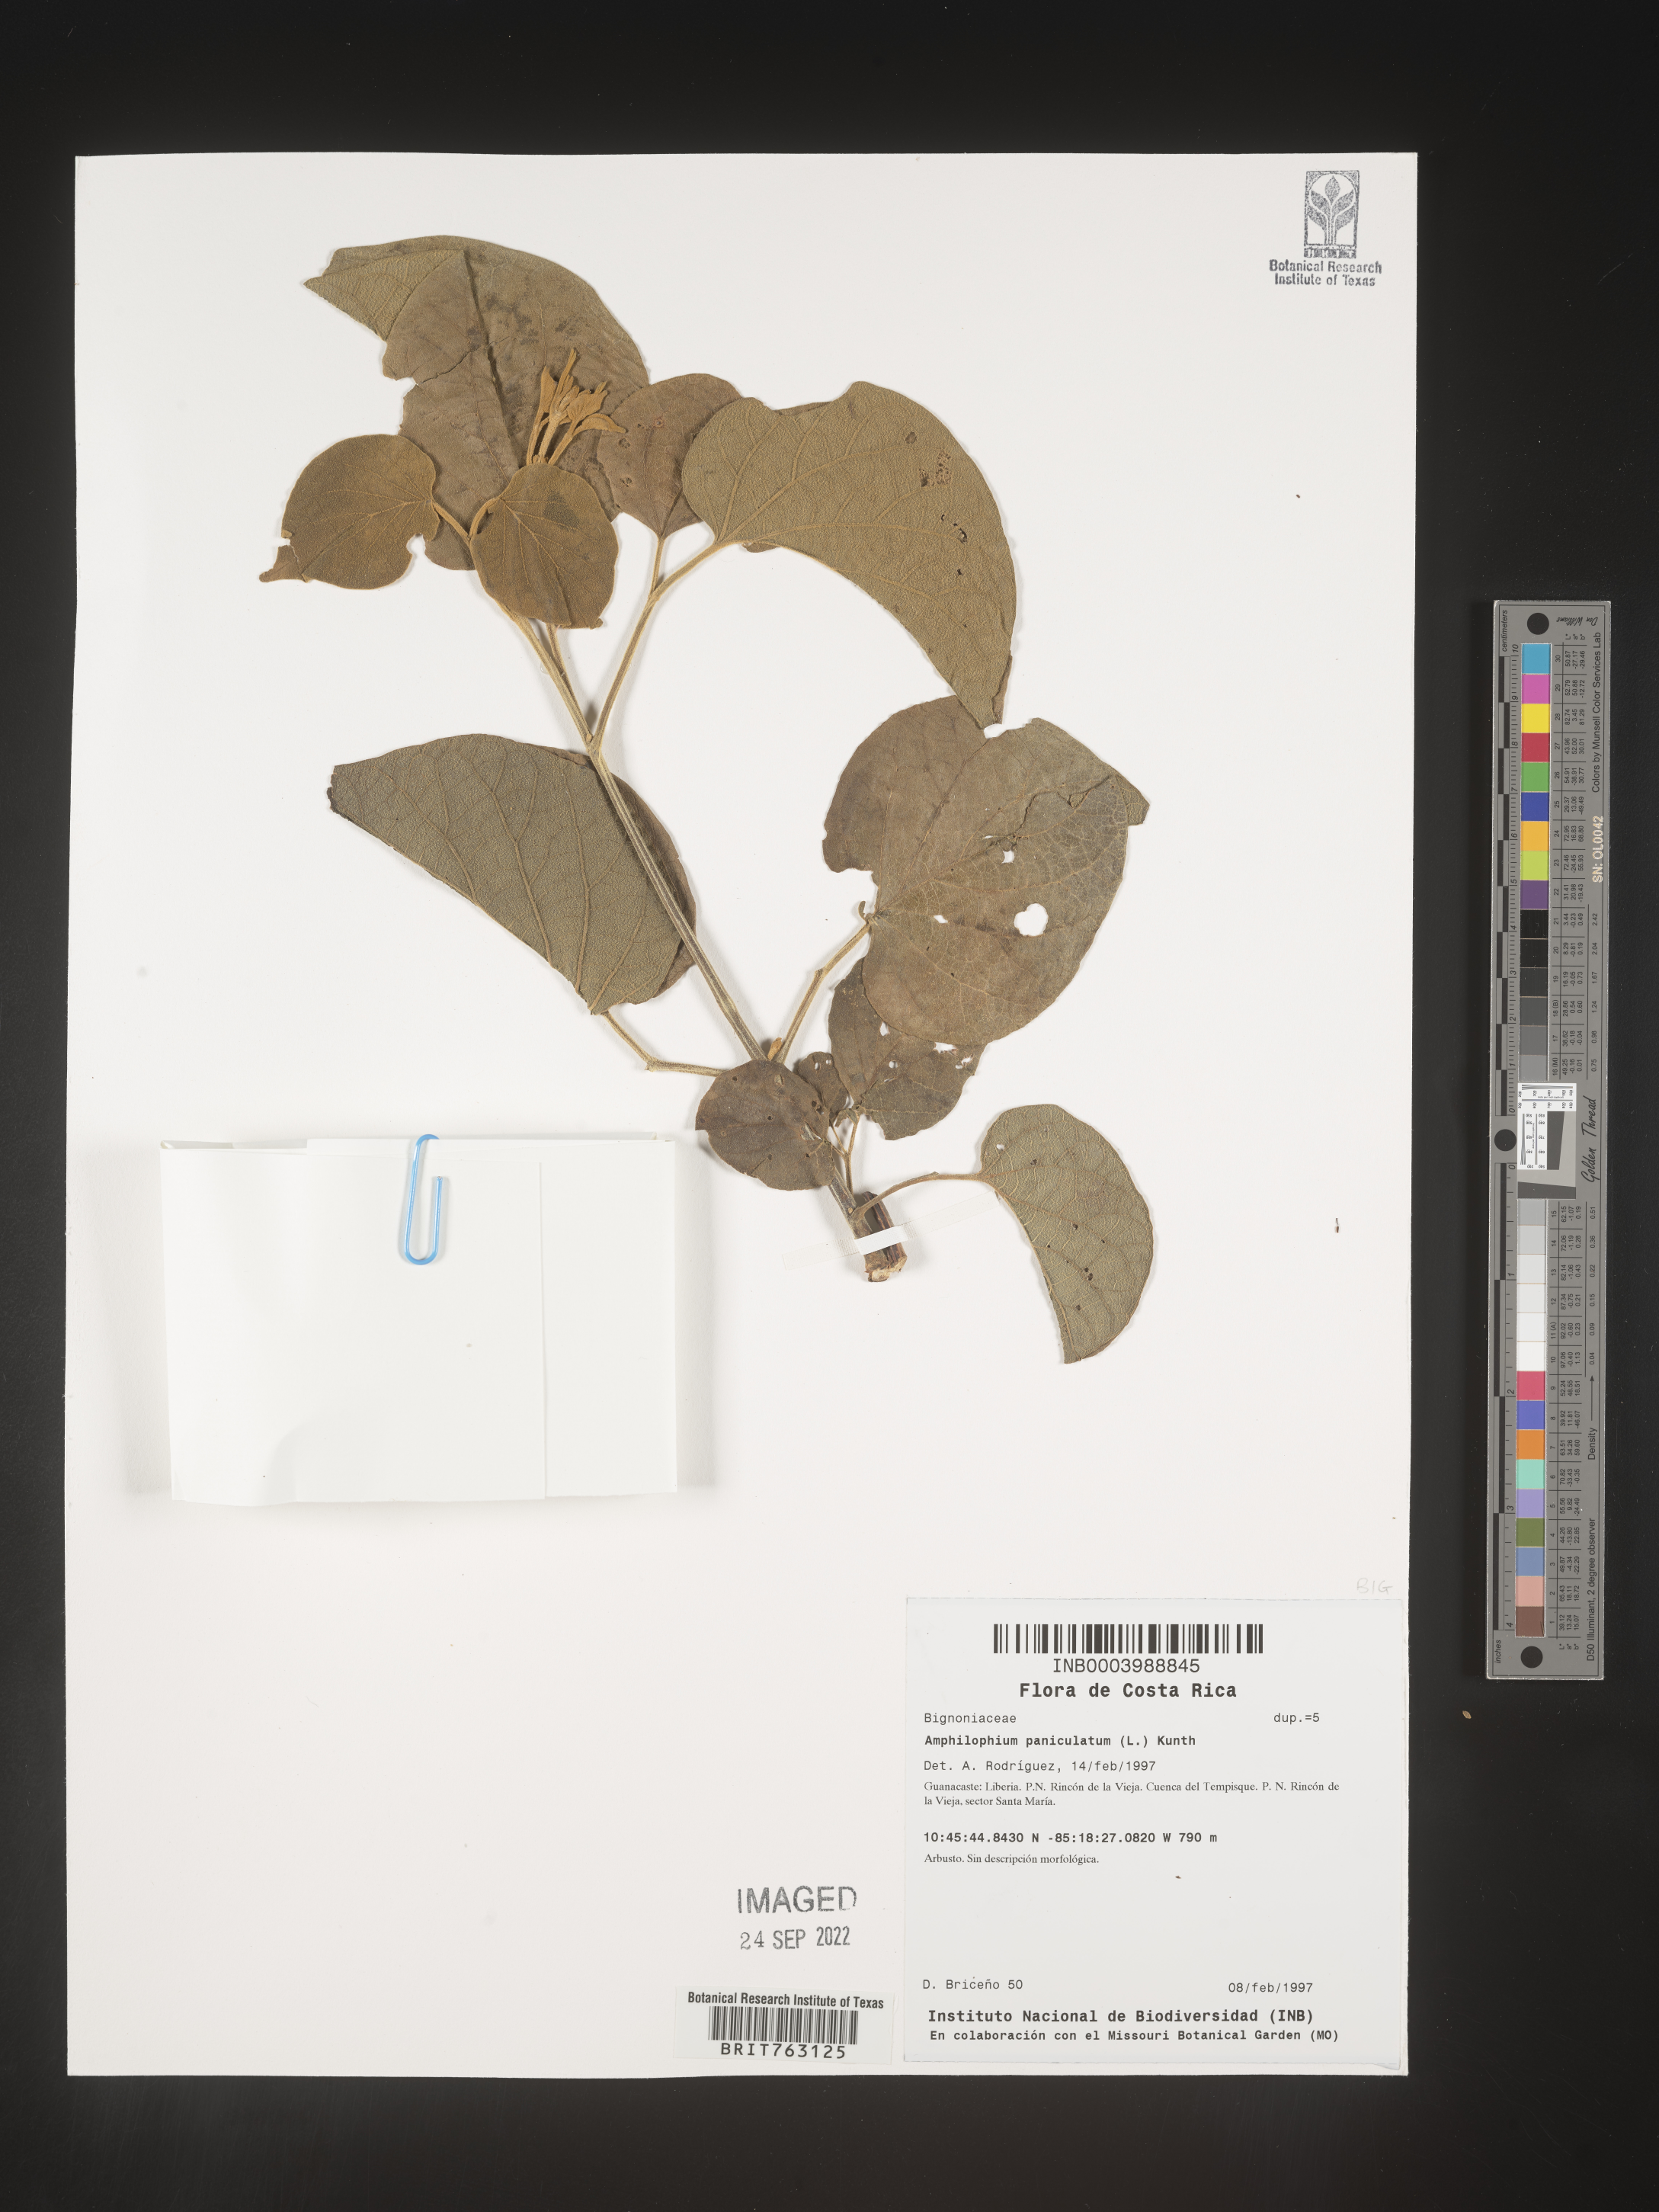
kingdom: Plantae
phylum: Tracheophyta
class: Magnoliopsida
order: Lamiales
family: Bignoniaceae
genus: Amphilophium
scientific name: Amphilophium
